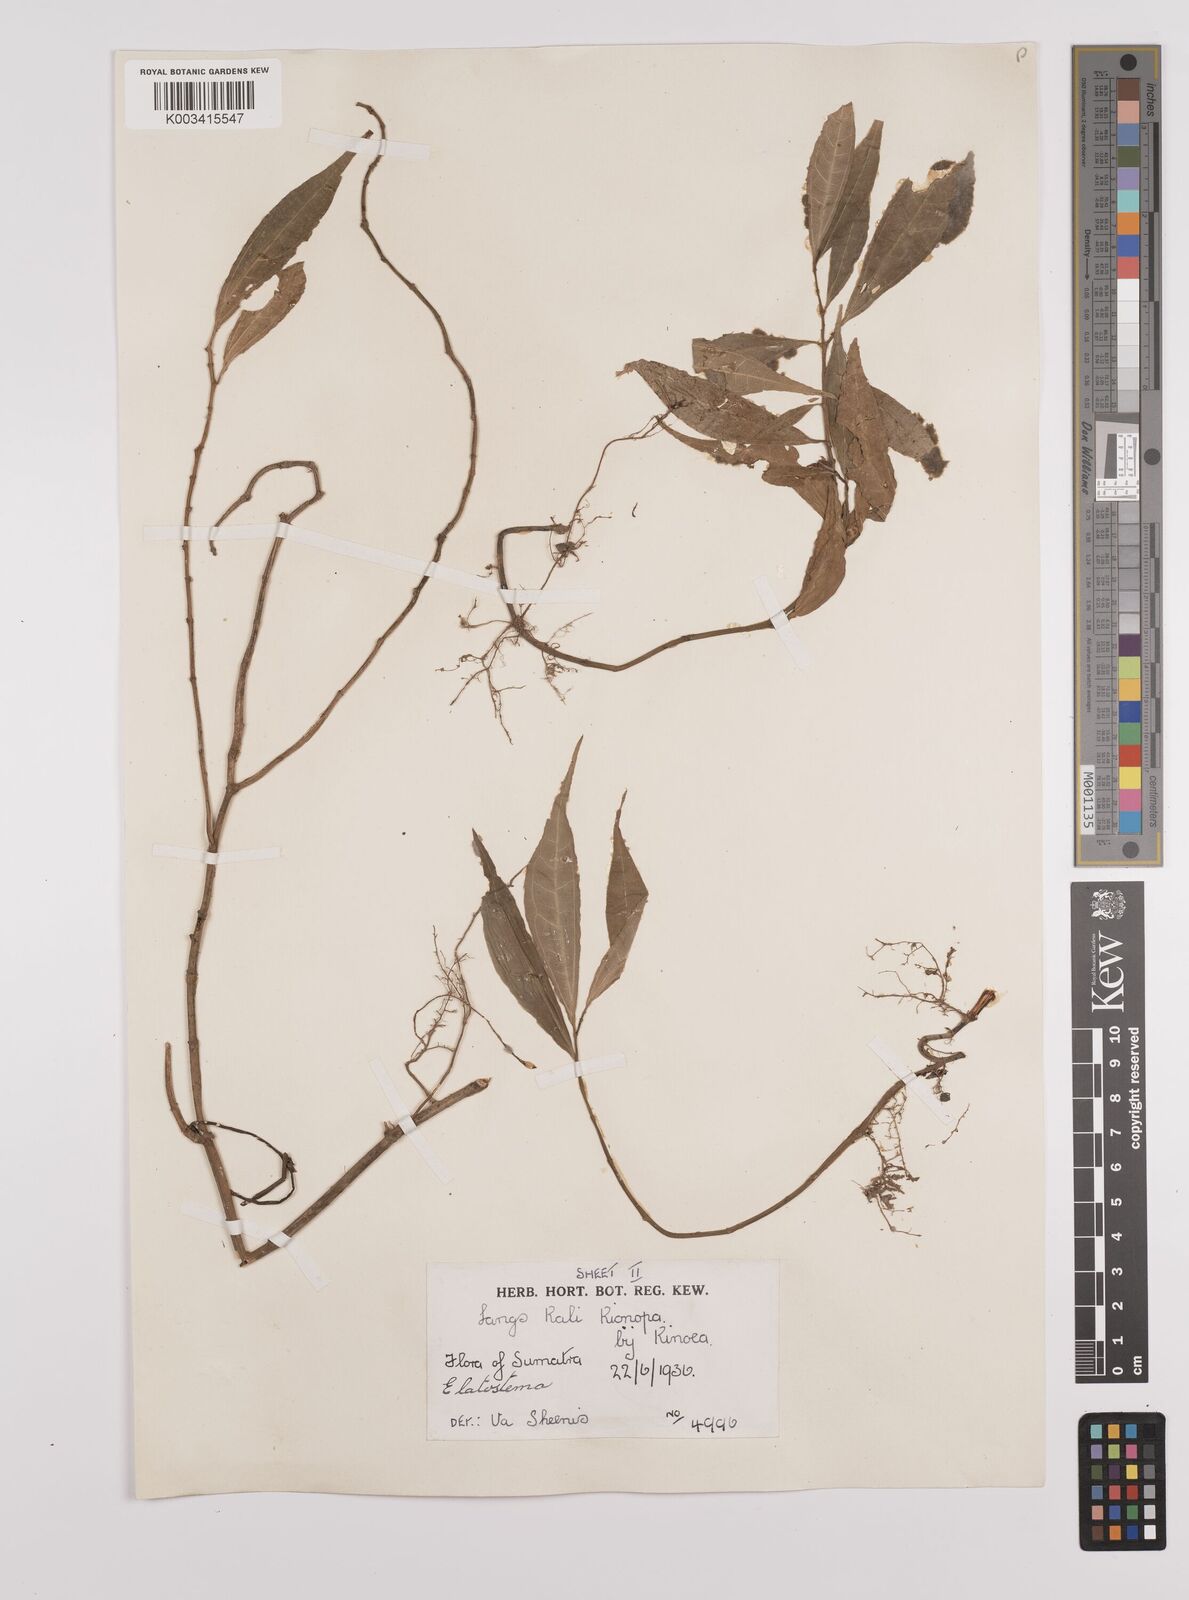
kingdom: Plantae
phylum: Tracheophyta
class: Magnoliopsida
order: Rosales
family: Urticaceae
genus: Elatostema
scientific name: Elatostema
